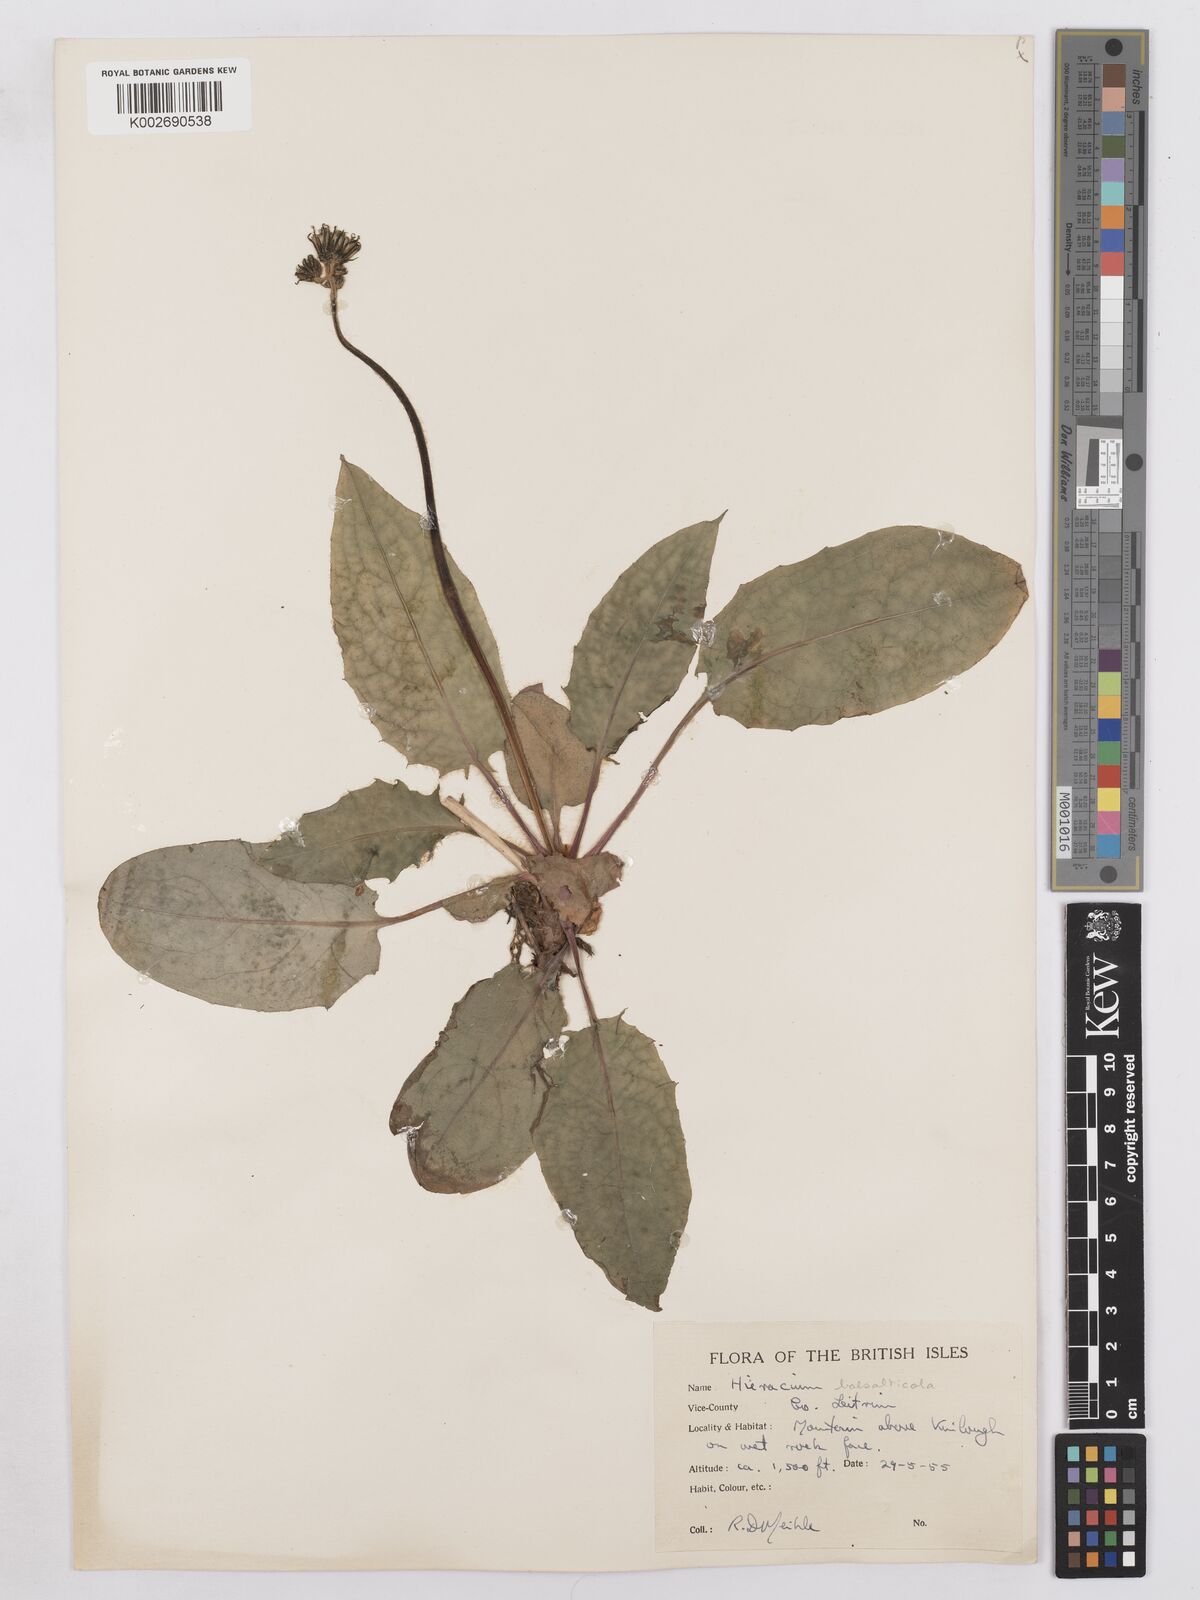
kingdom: Plantae
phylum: Tracheophyta
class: Magnoliopsida
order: Asterales
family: Asteraceae
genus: Hieracium
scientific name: Hieracium basalticola
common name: Basalt hawkweed
